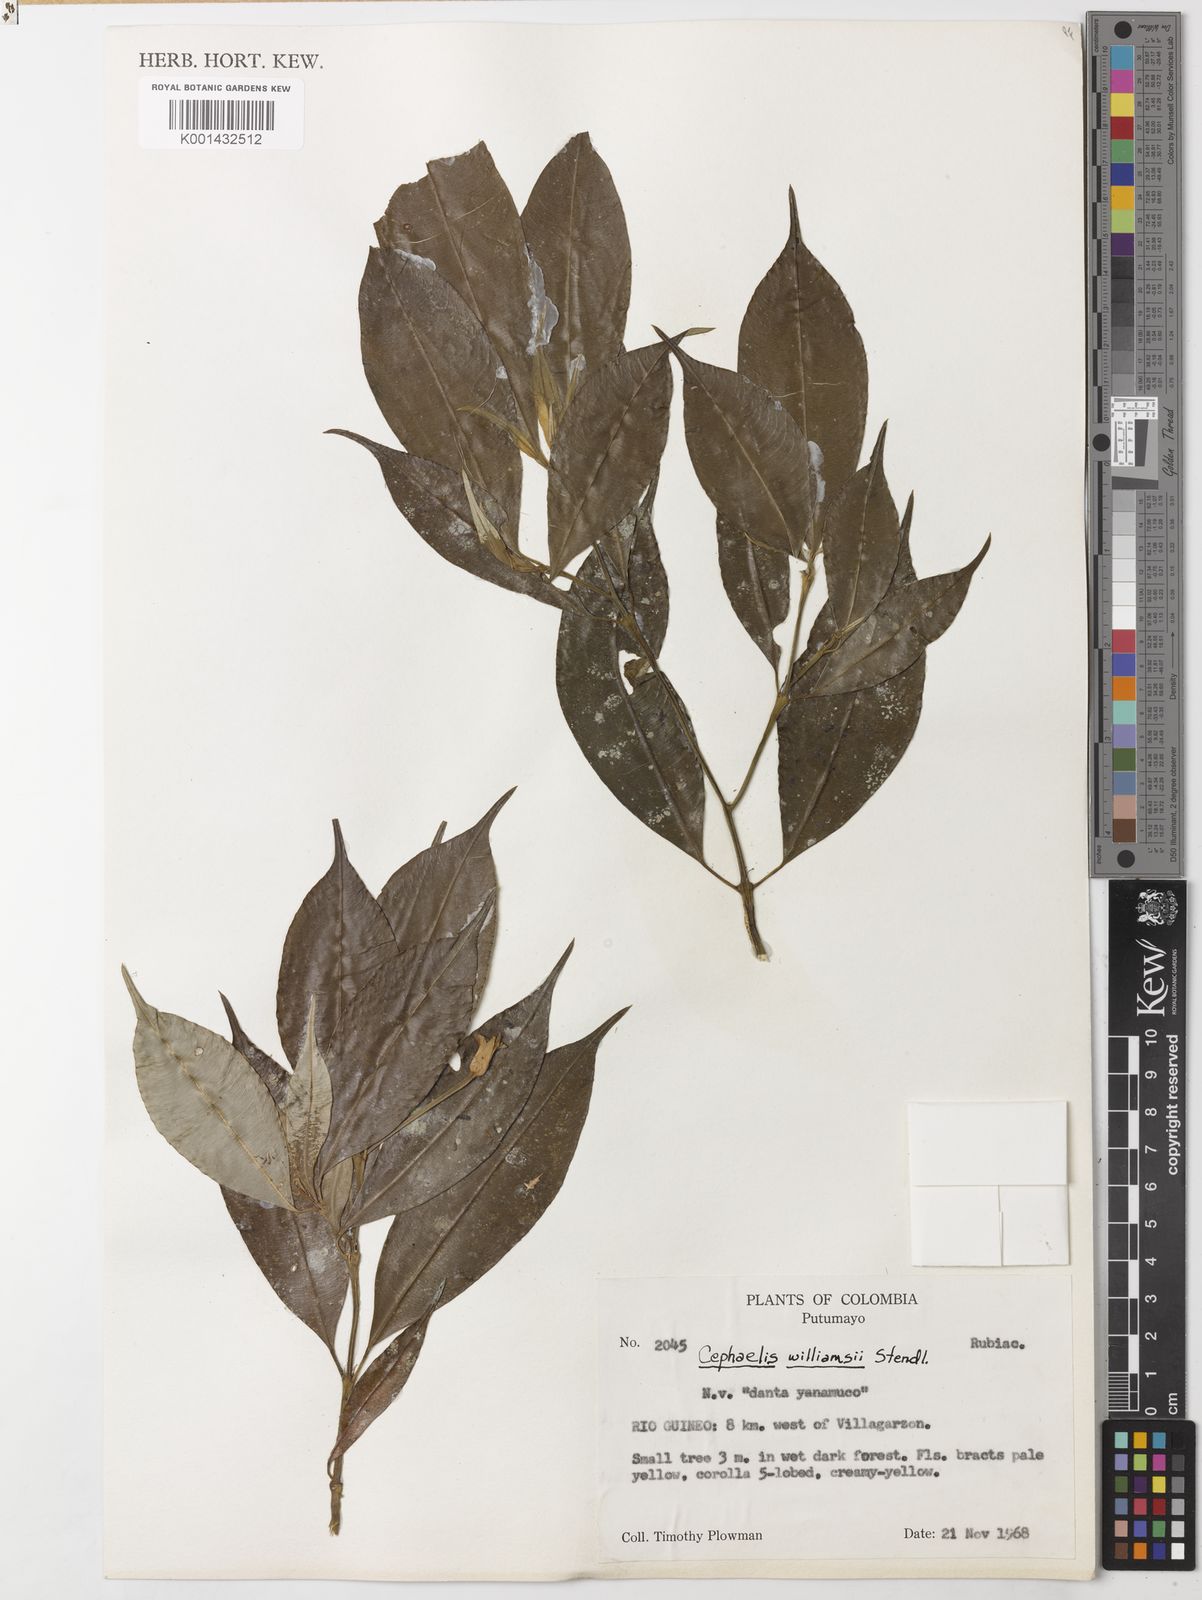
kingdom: Plantae
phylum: Tracheophyta
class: Magnoliopsida
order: Gentianales
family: Rubiaceae
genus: Psychotria
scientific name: Psychotria williamsii
